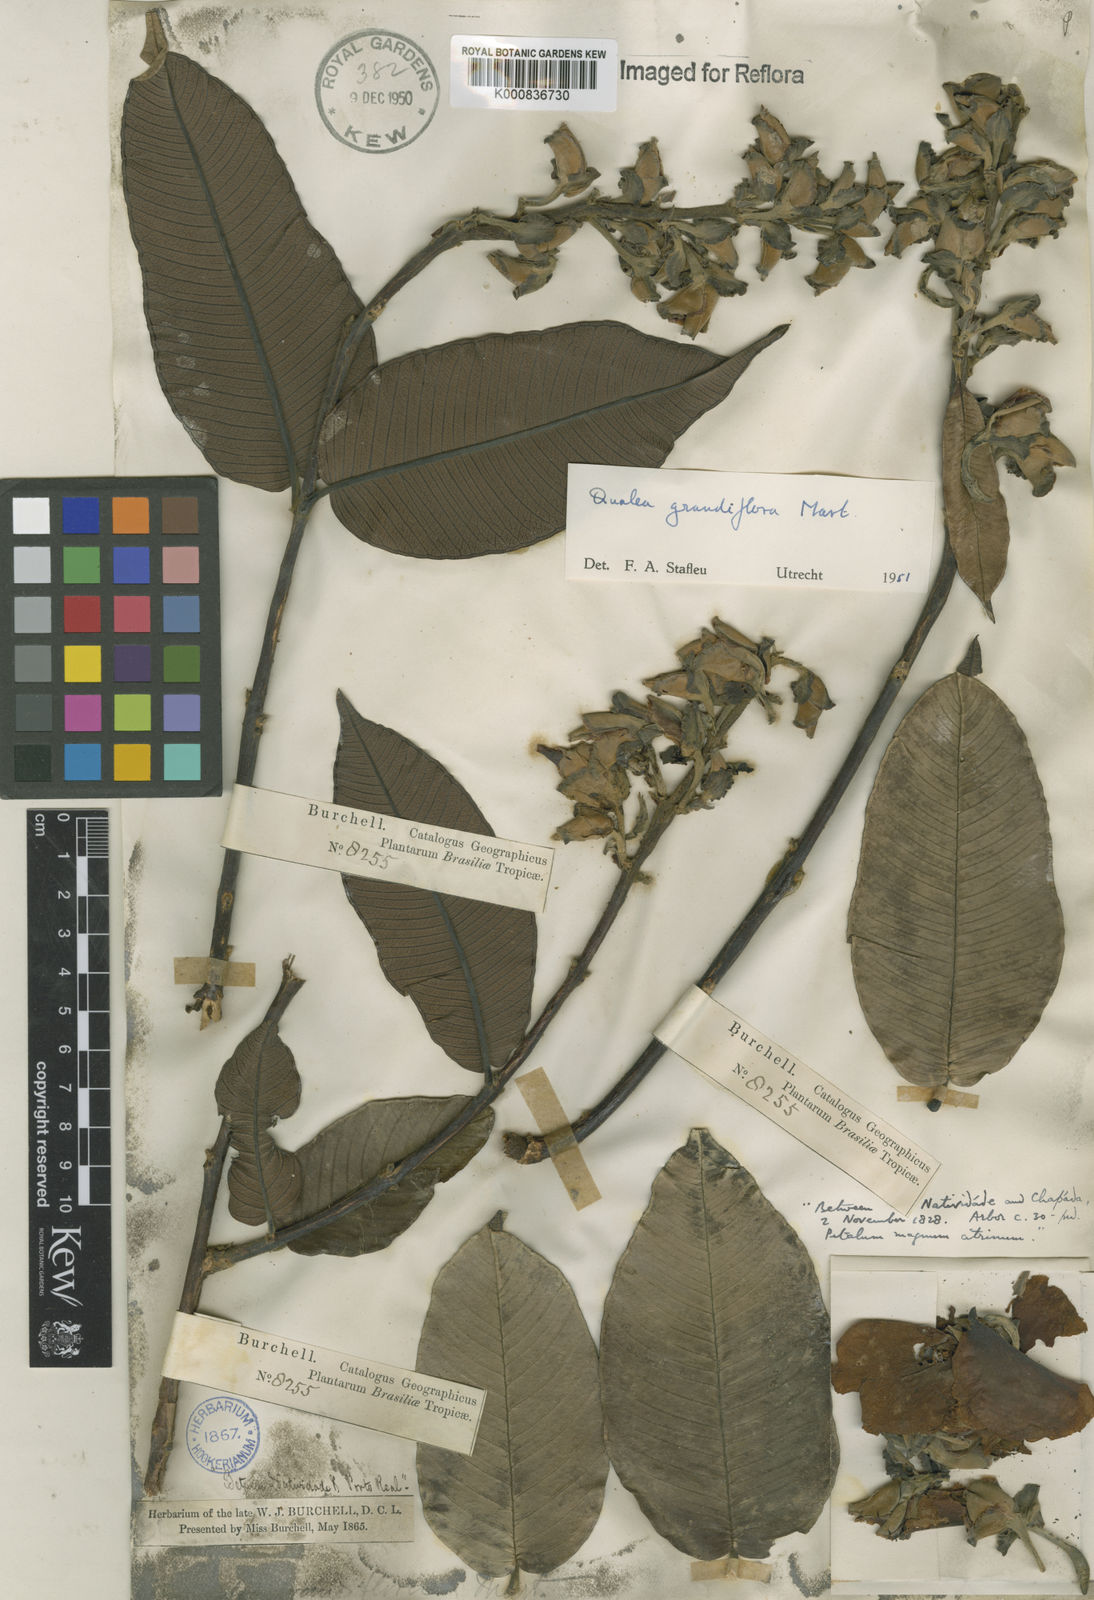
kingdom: Plantae
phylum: Tracheophyta
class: Magnoliopsida
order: Myrtales
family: Vochysiaceae
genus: Qualea
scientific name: Qualea grandiflora
